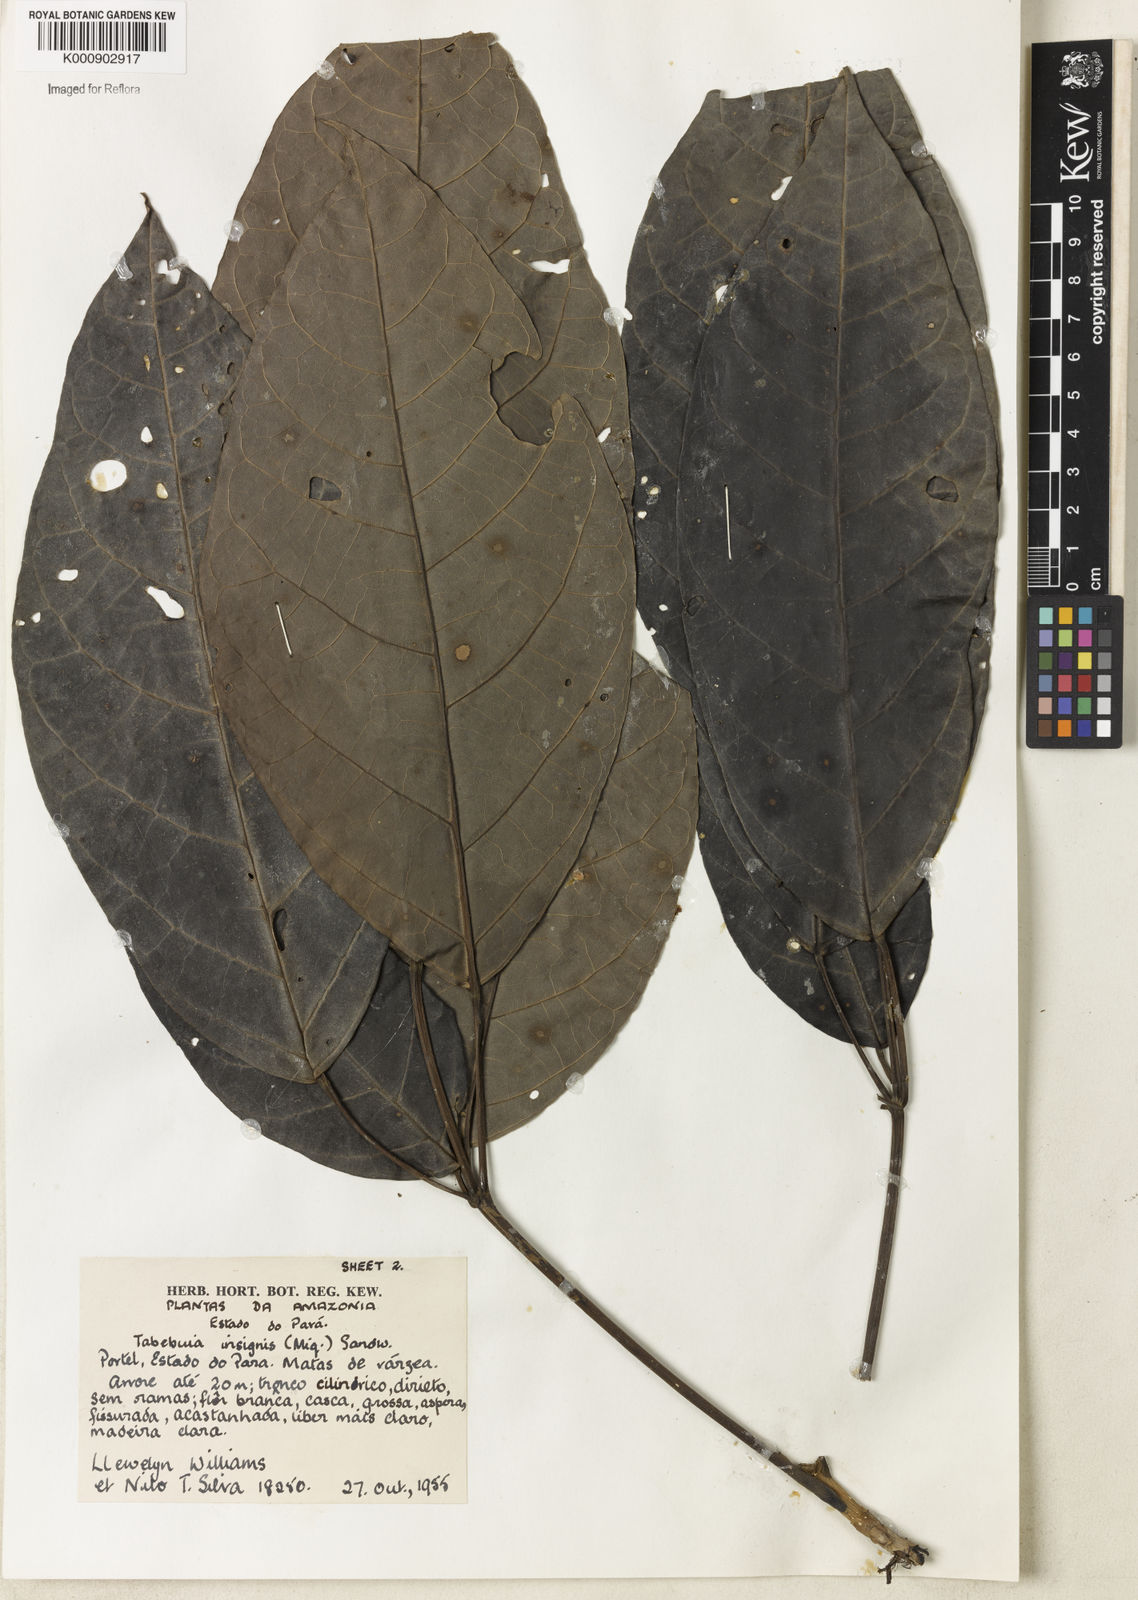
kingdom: Plantae
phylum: Tracheophyta
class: Magnoliopsida
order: Lamiales
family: Bignoniaceae
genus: Tabebuia
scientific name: Tabebuia insignis
